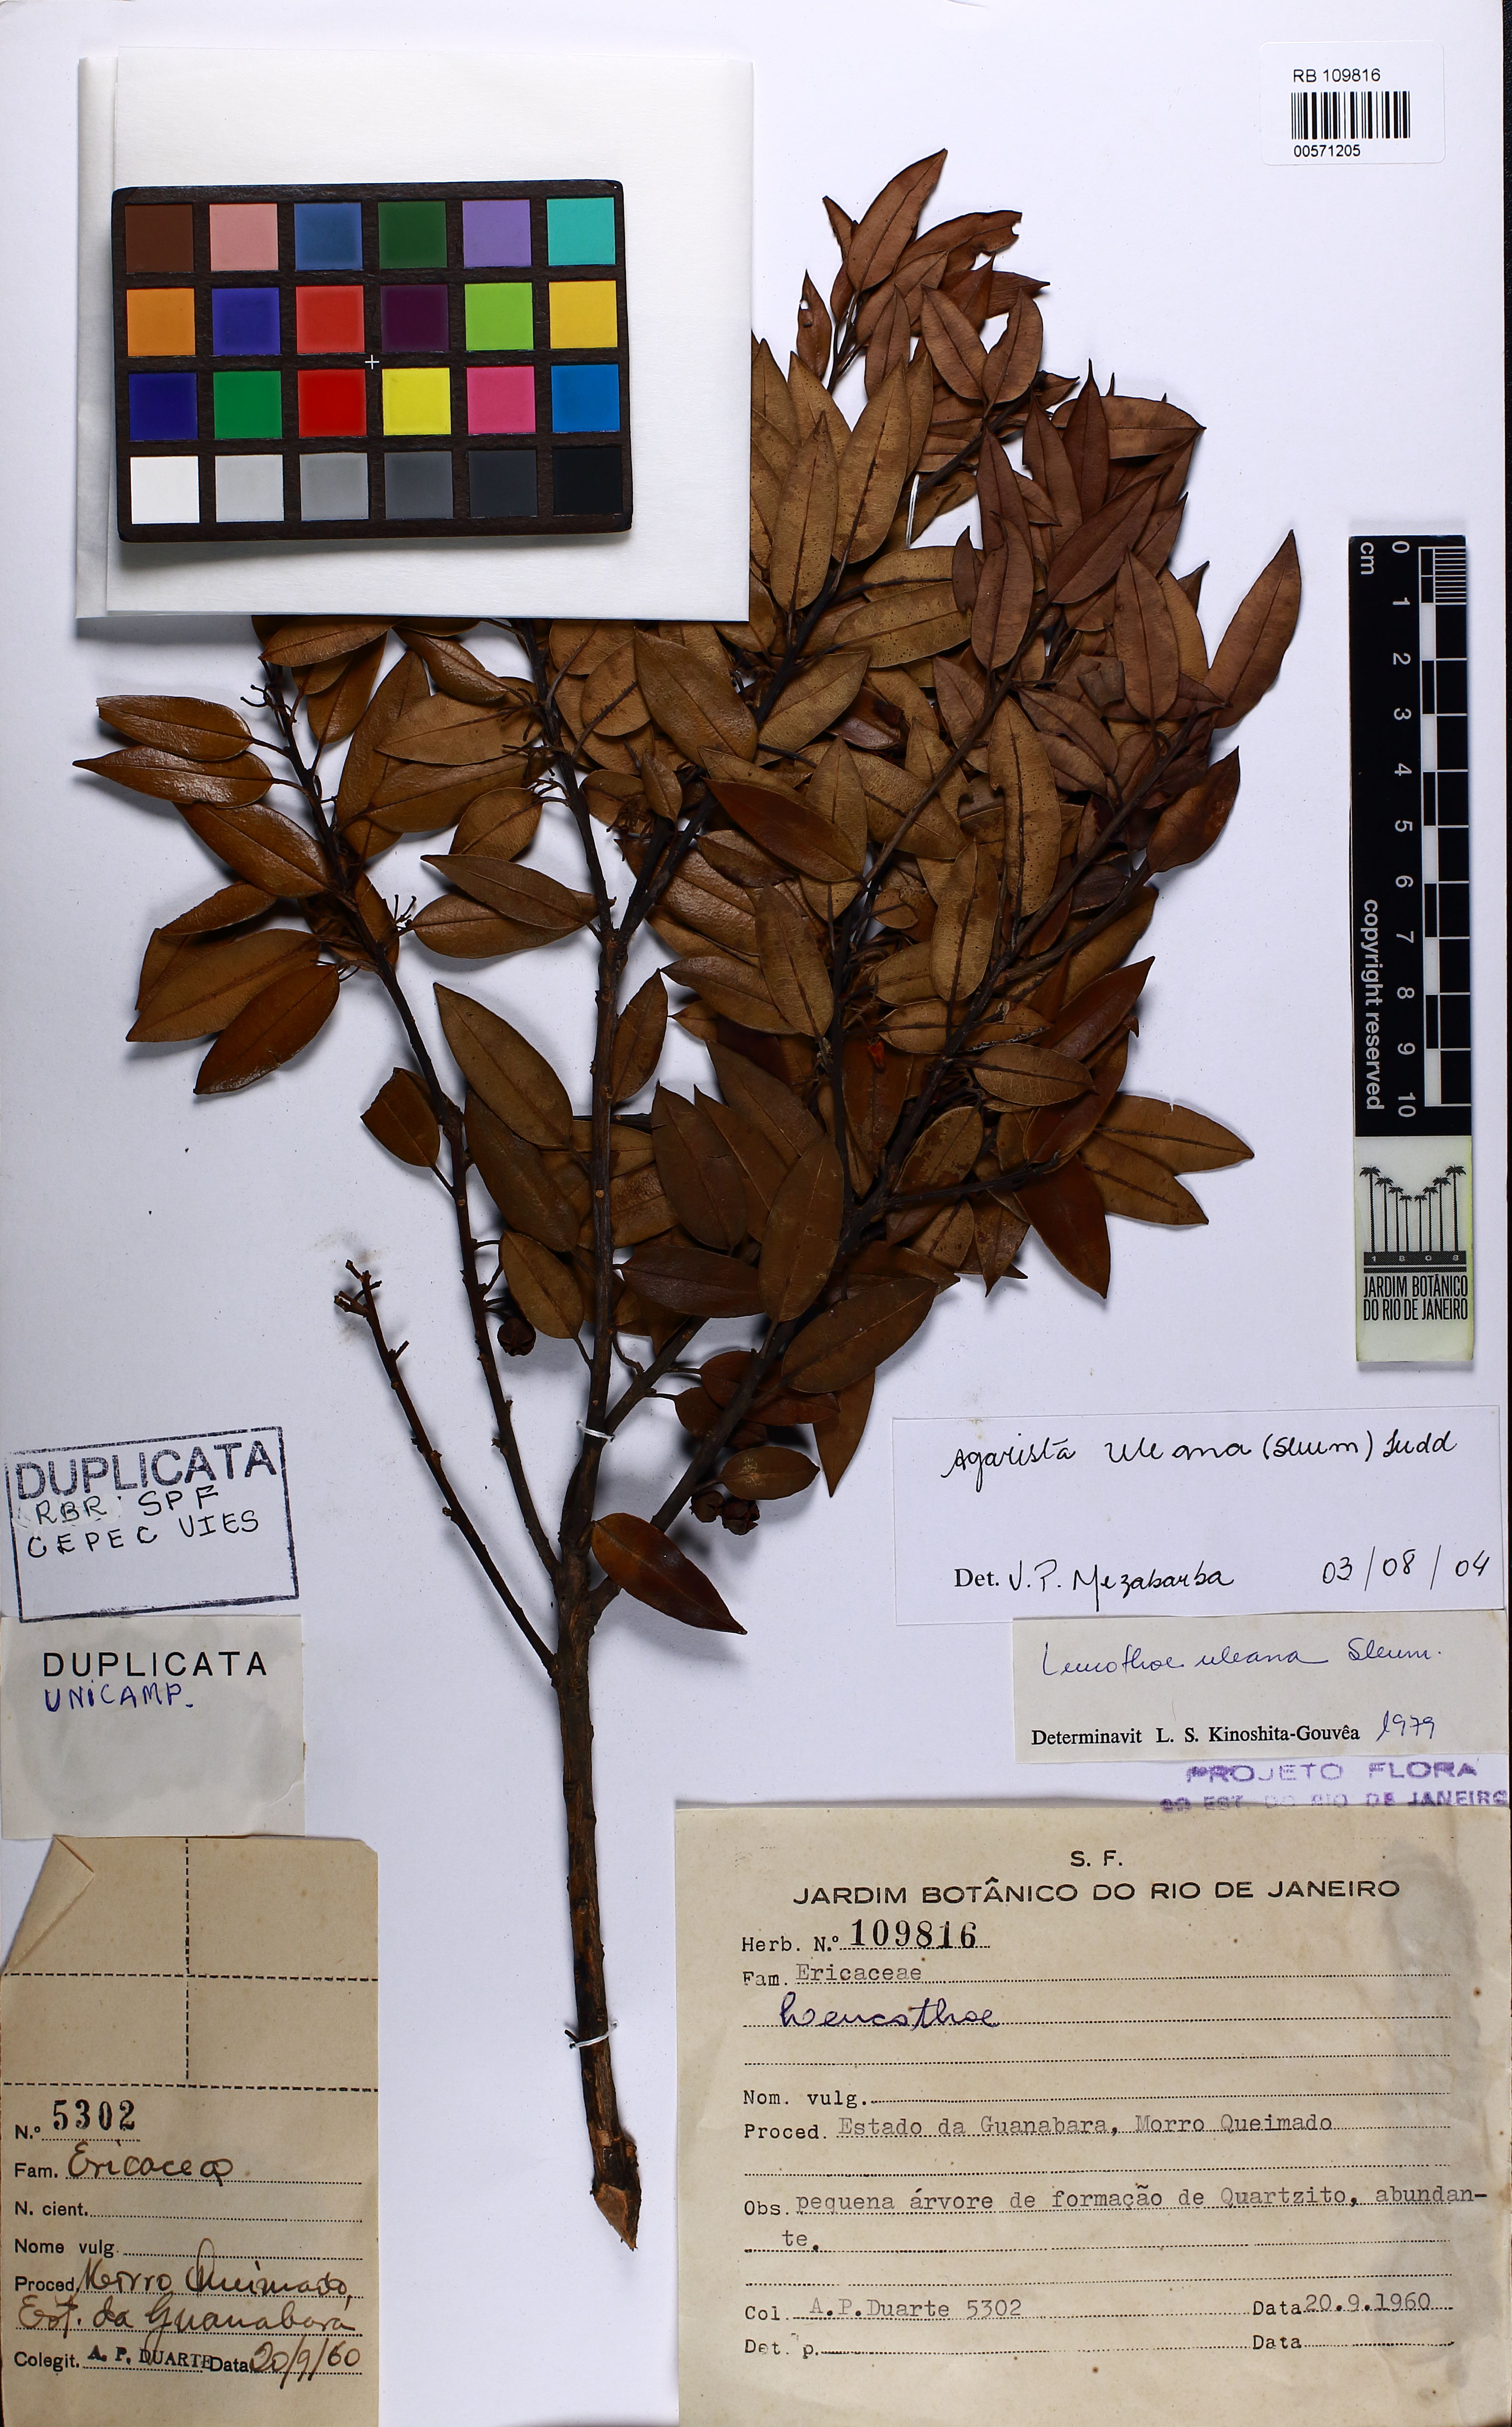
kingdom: Plantae
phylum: Tracheophyta
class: Magnoliopsida
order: Ericales
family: Ericaceae
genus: Agarista
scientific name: Agarista uleana
